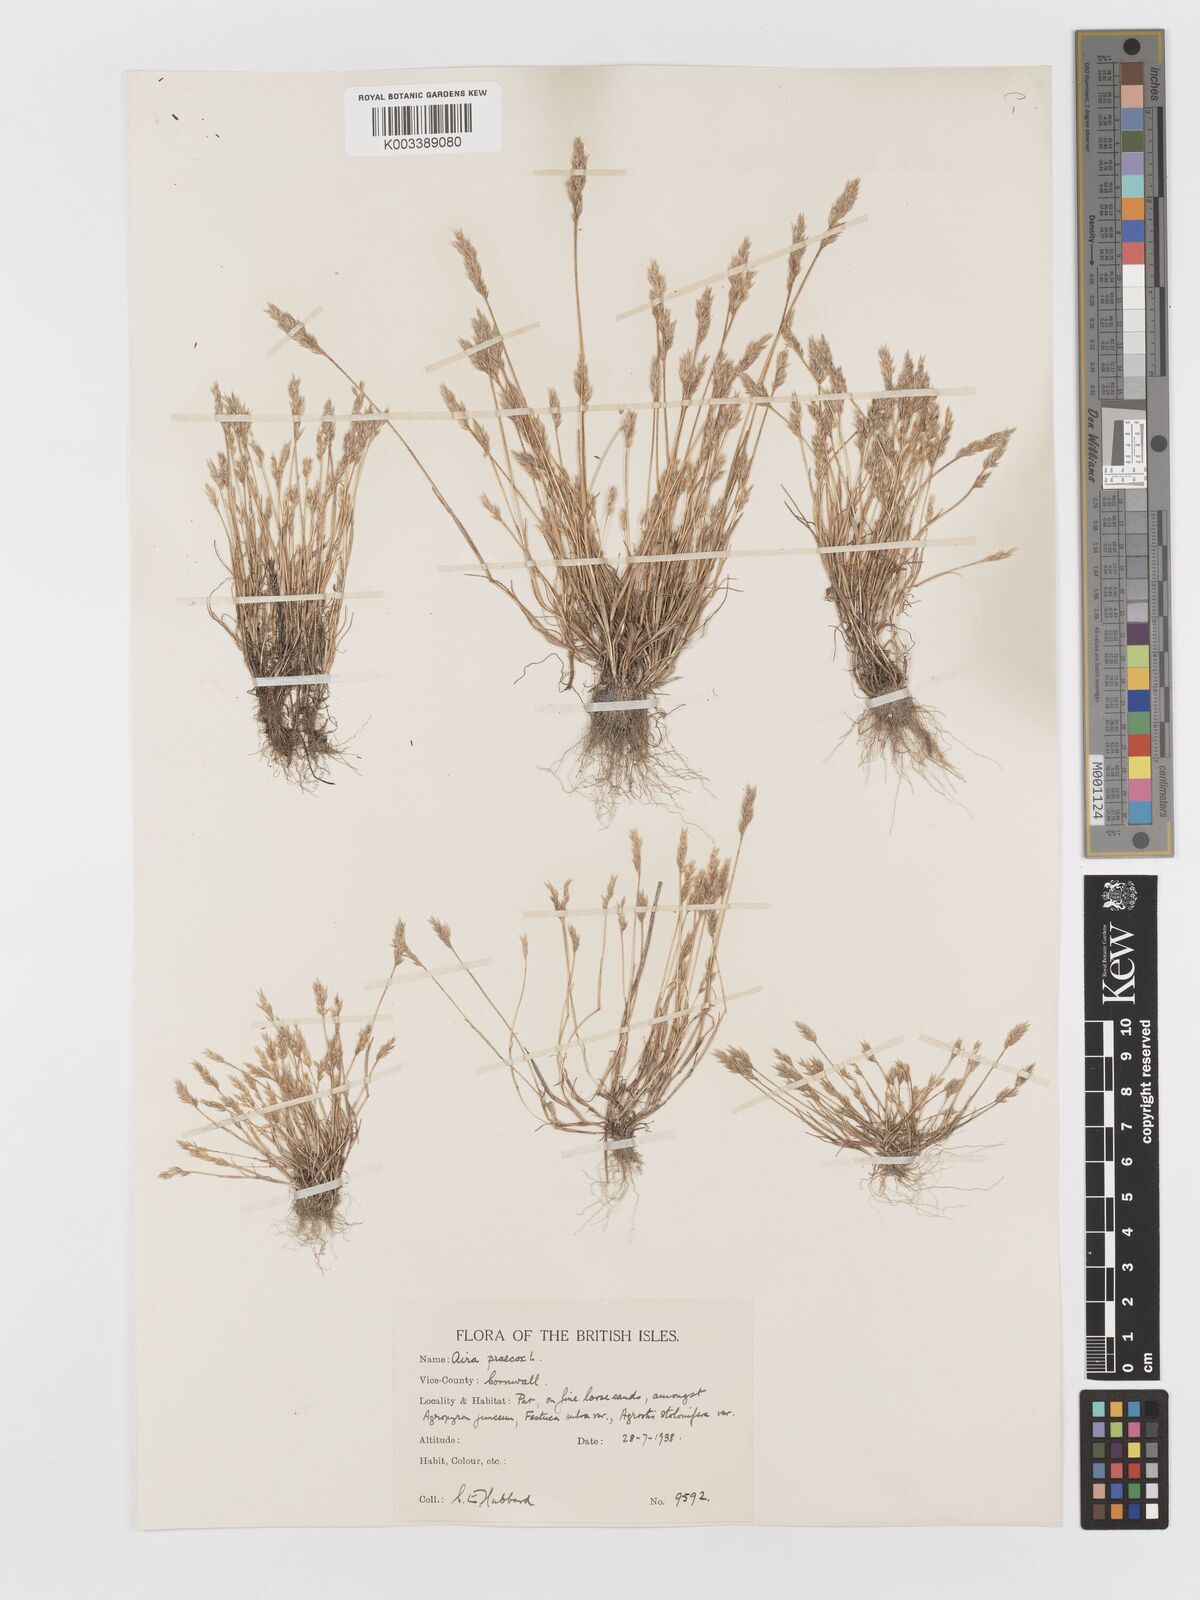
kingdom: Plantae
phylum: Tracheophyta
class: Liliopsida
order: Poales
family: Poaceae
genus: Aira
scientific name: Aira praecox
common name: Early hair-grass
